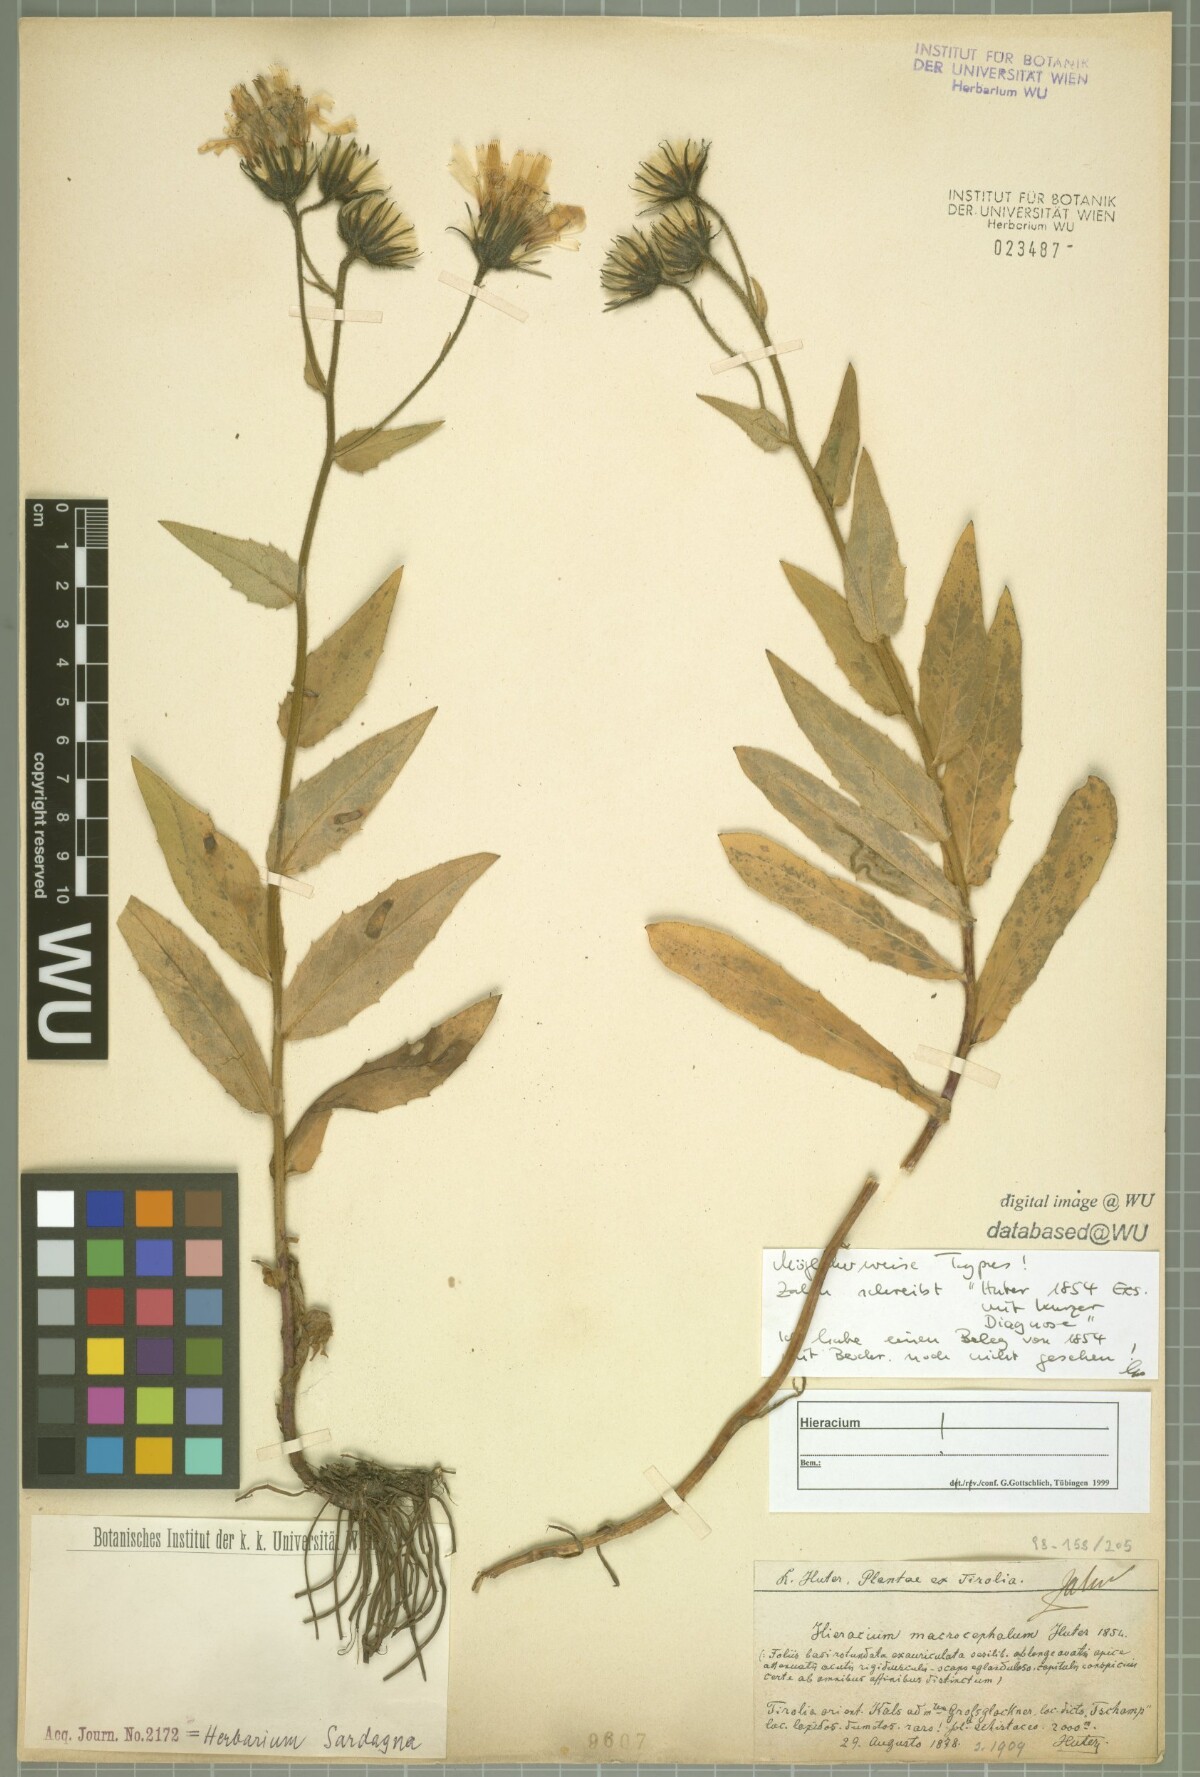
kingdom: Plantae
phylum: Tracheophyta
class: Magnoliopsida
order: Asterales
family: Asteraceae
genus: Hieracium
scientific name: Hieracium macrocephalum
